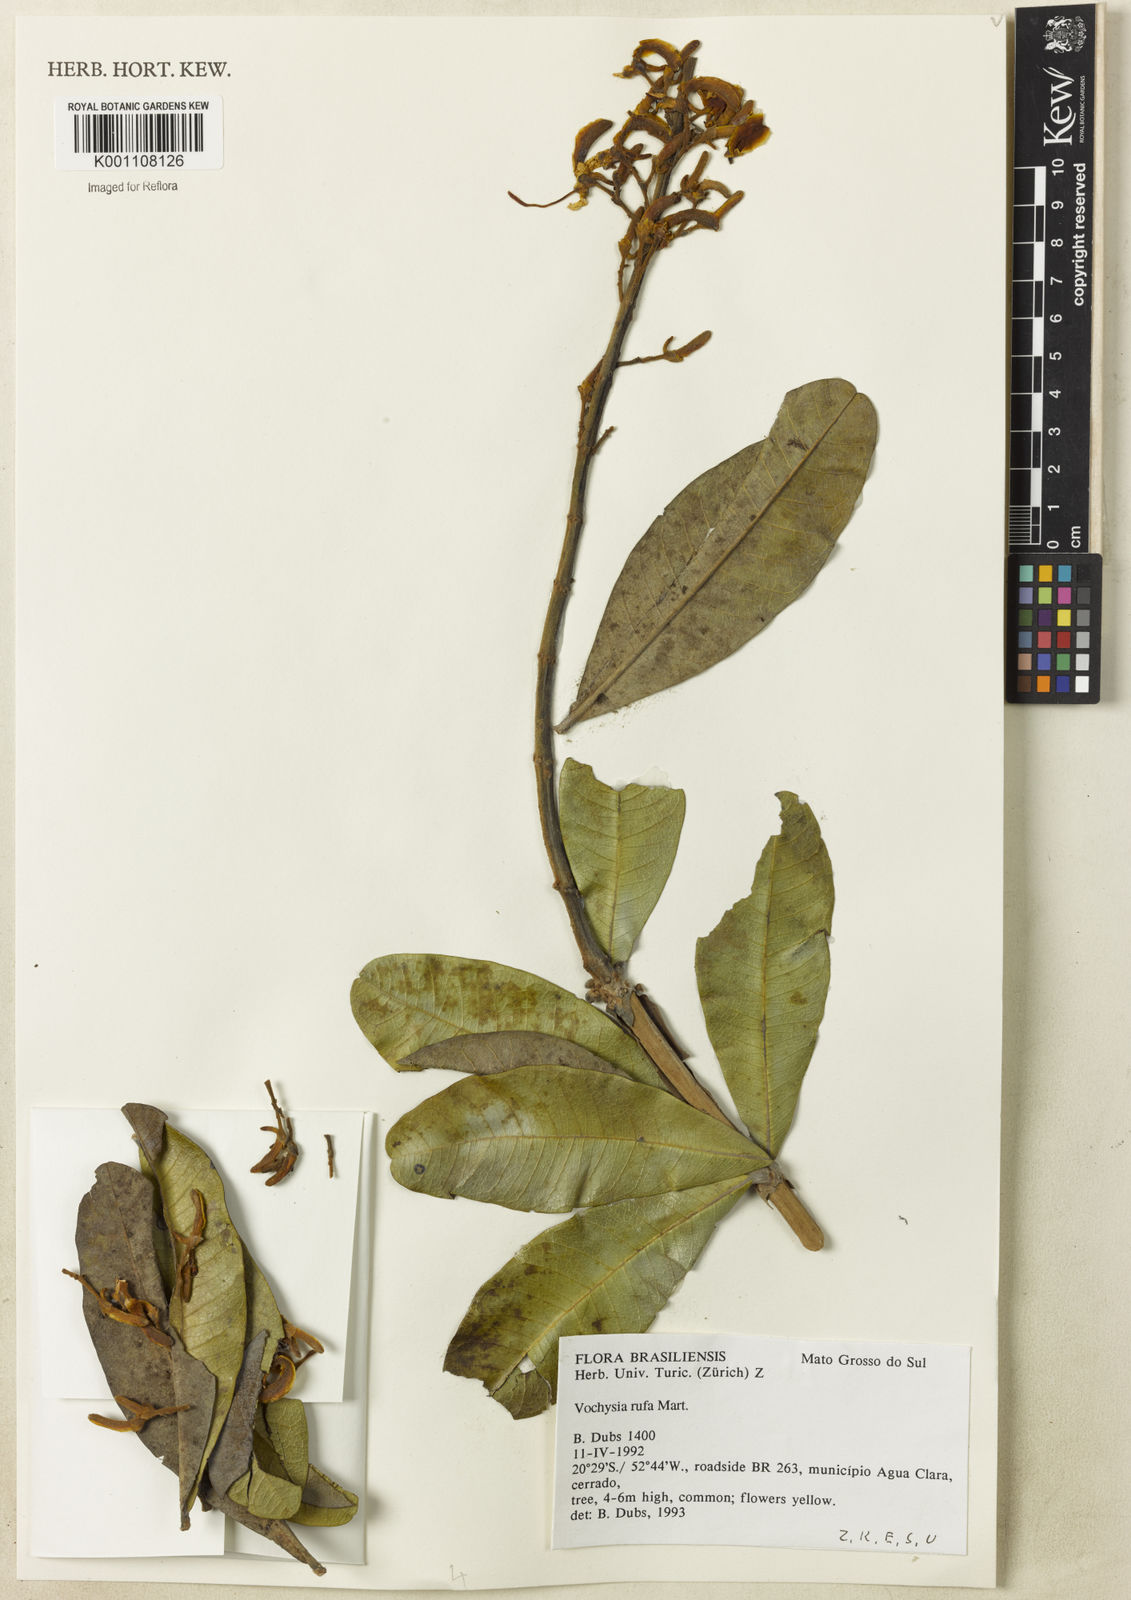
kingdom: Plantae
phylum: Tracheophyta
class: Magnoliopsida
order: Myrtales
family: Vochysiaceae
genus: Vochysia
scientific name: Vochysia rufa
